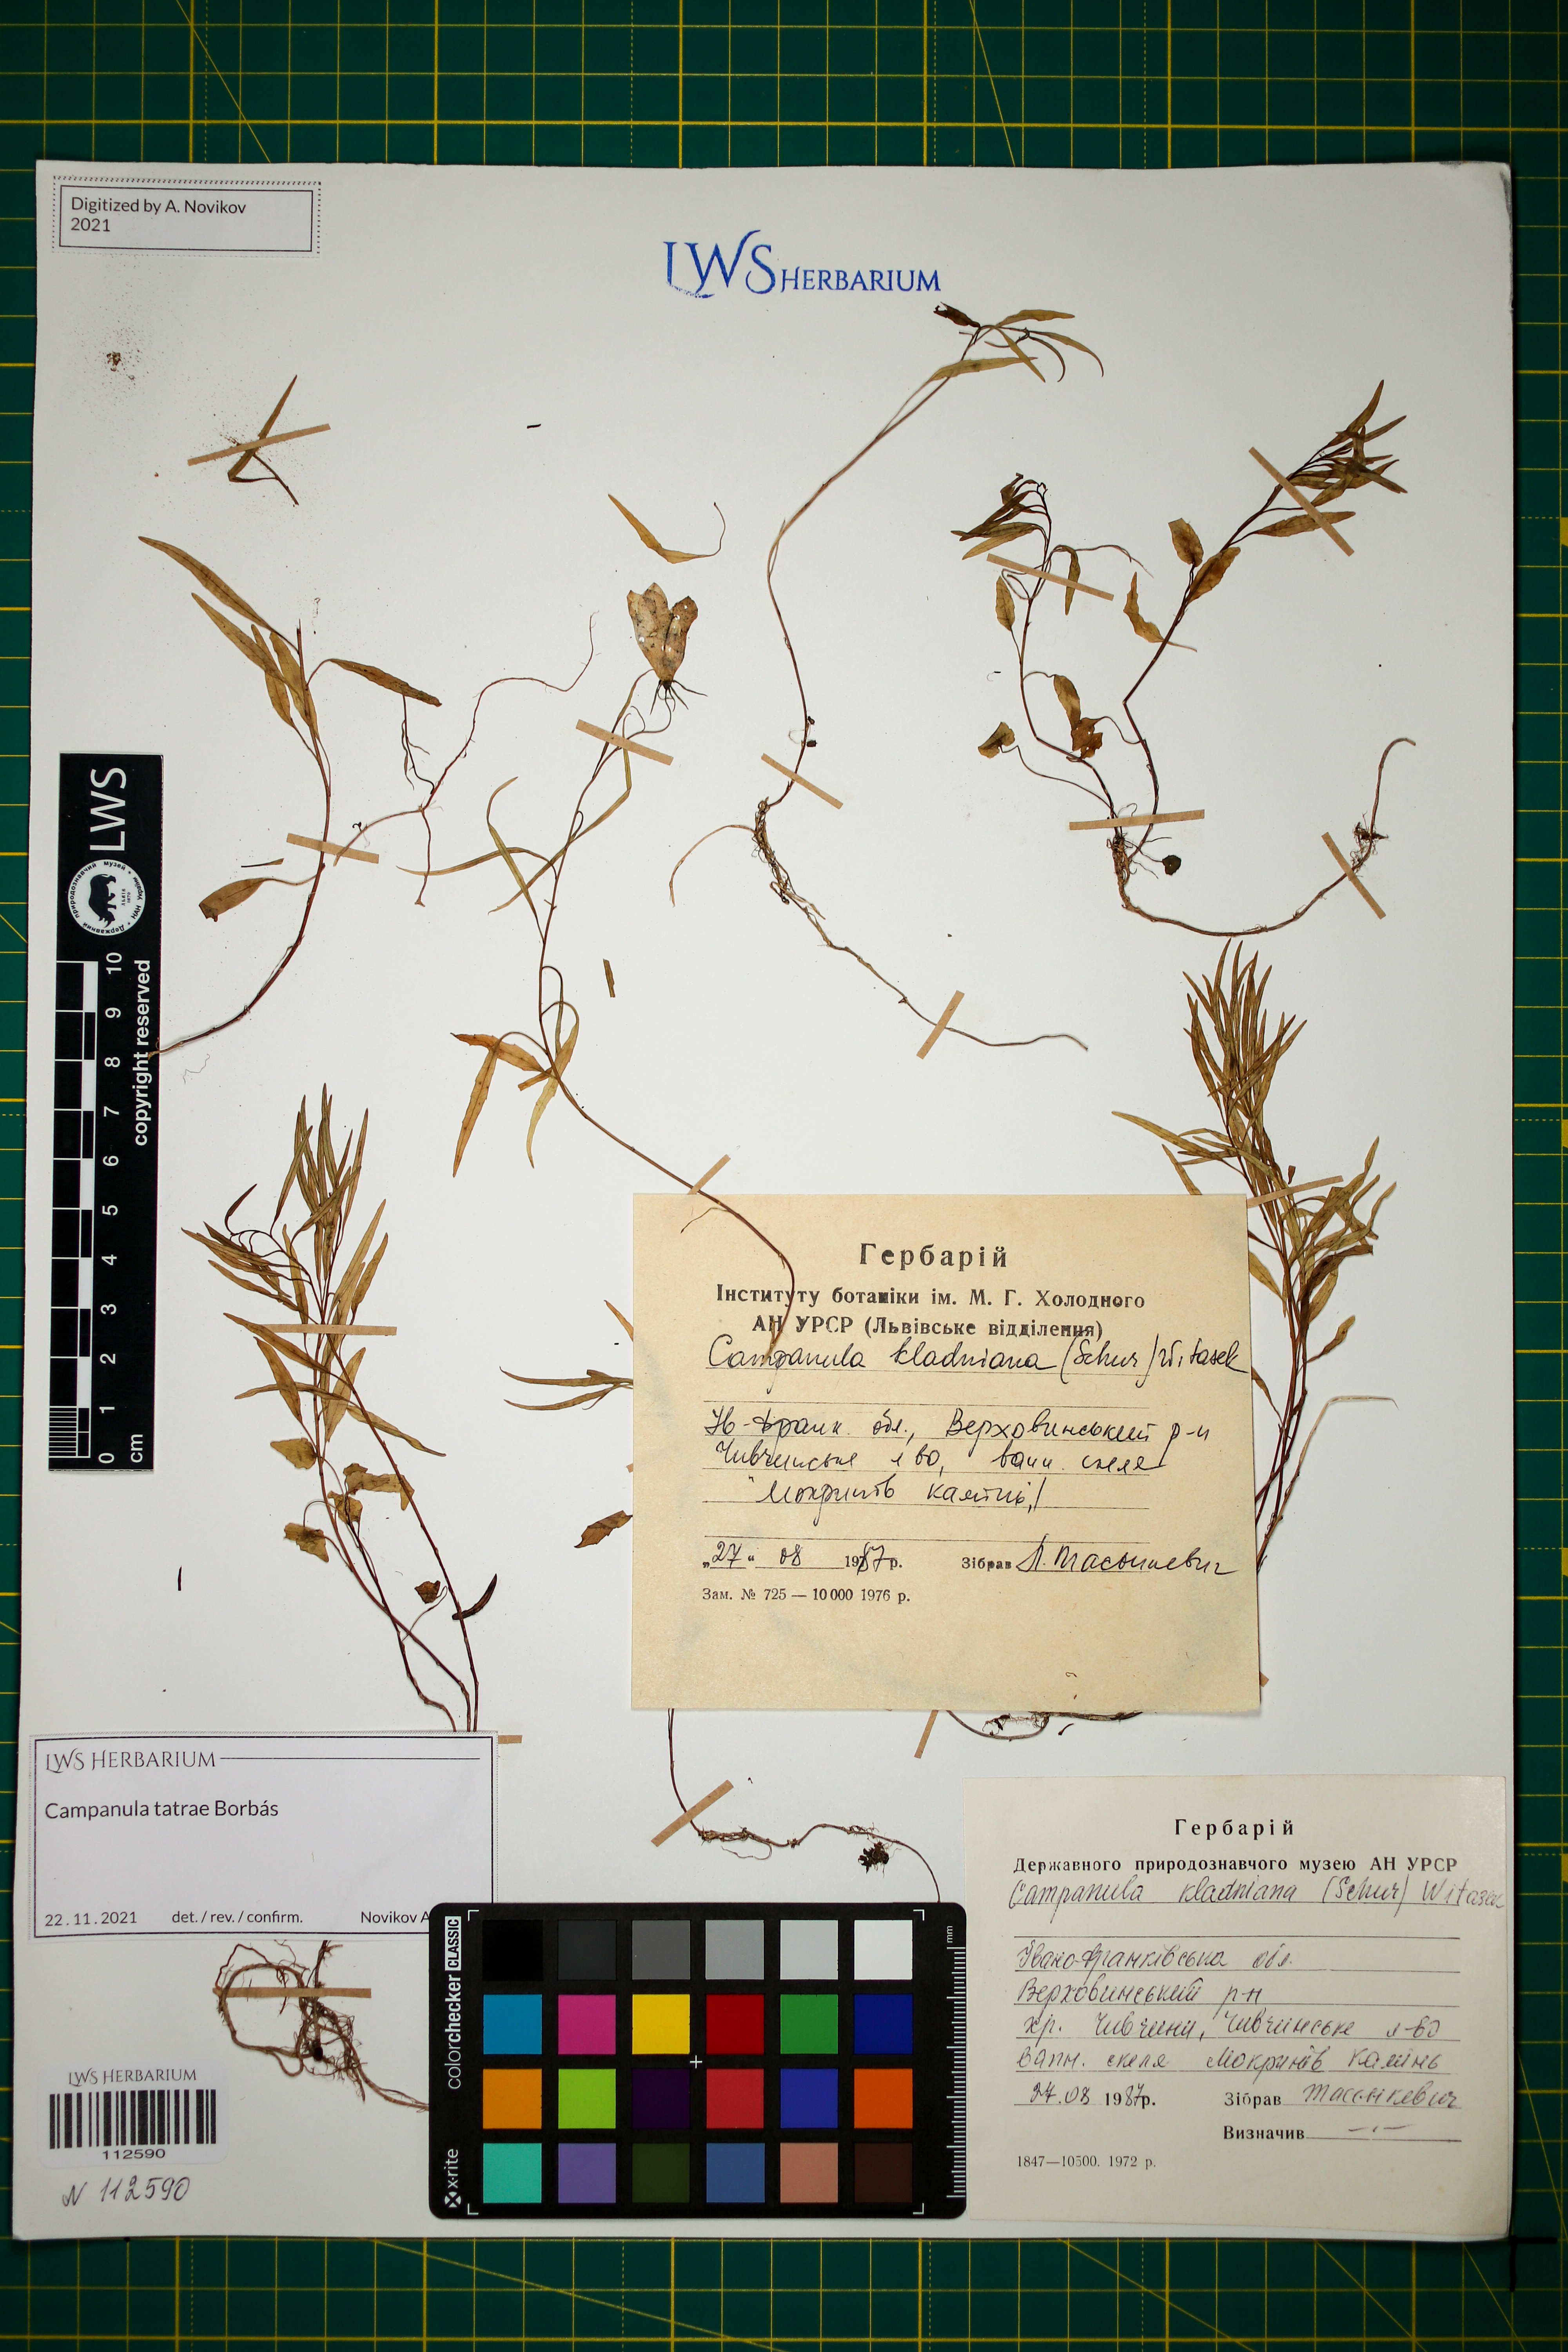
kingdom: Plantae
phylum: Tracheophyta
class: Magnoliopsida
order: Asterales
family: Campanulaceae
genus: Campanula
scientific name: Campanula kladniana
